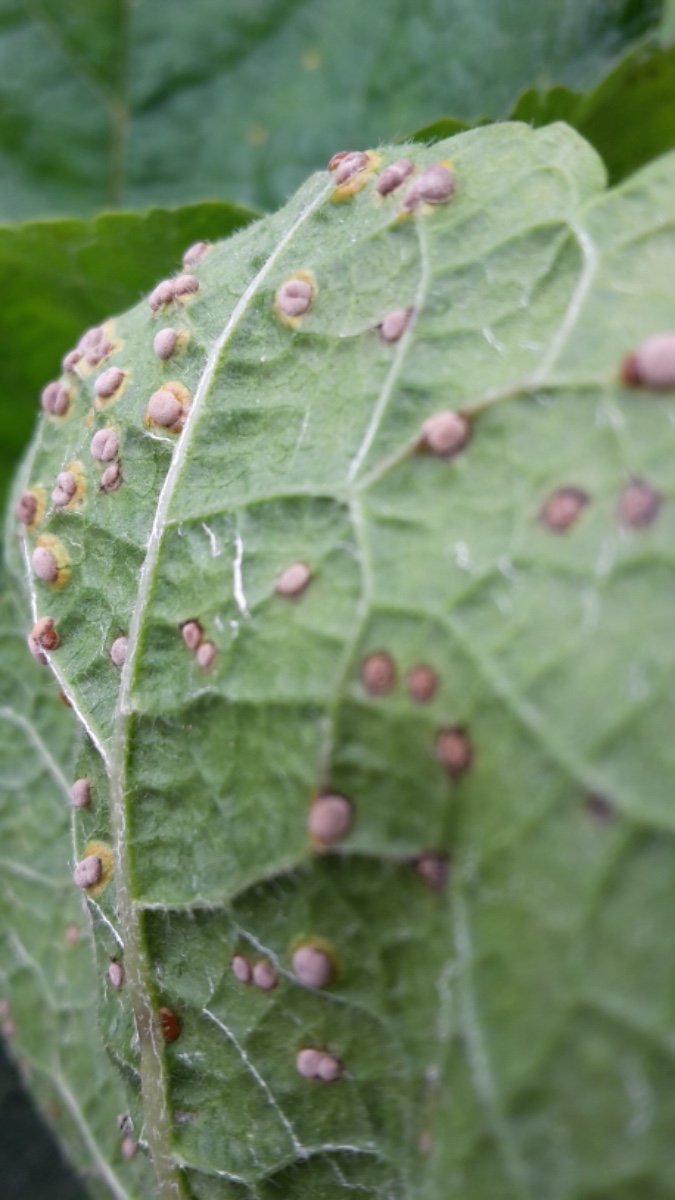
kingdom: Fungi
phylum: Basidiomycota
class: Pucciniomycetes
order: Pucciniales
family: Pucciniaceae
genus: Puccinia
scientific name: Puccinia malvacearum
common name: stokrose-tvecellerust
